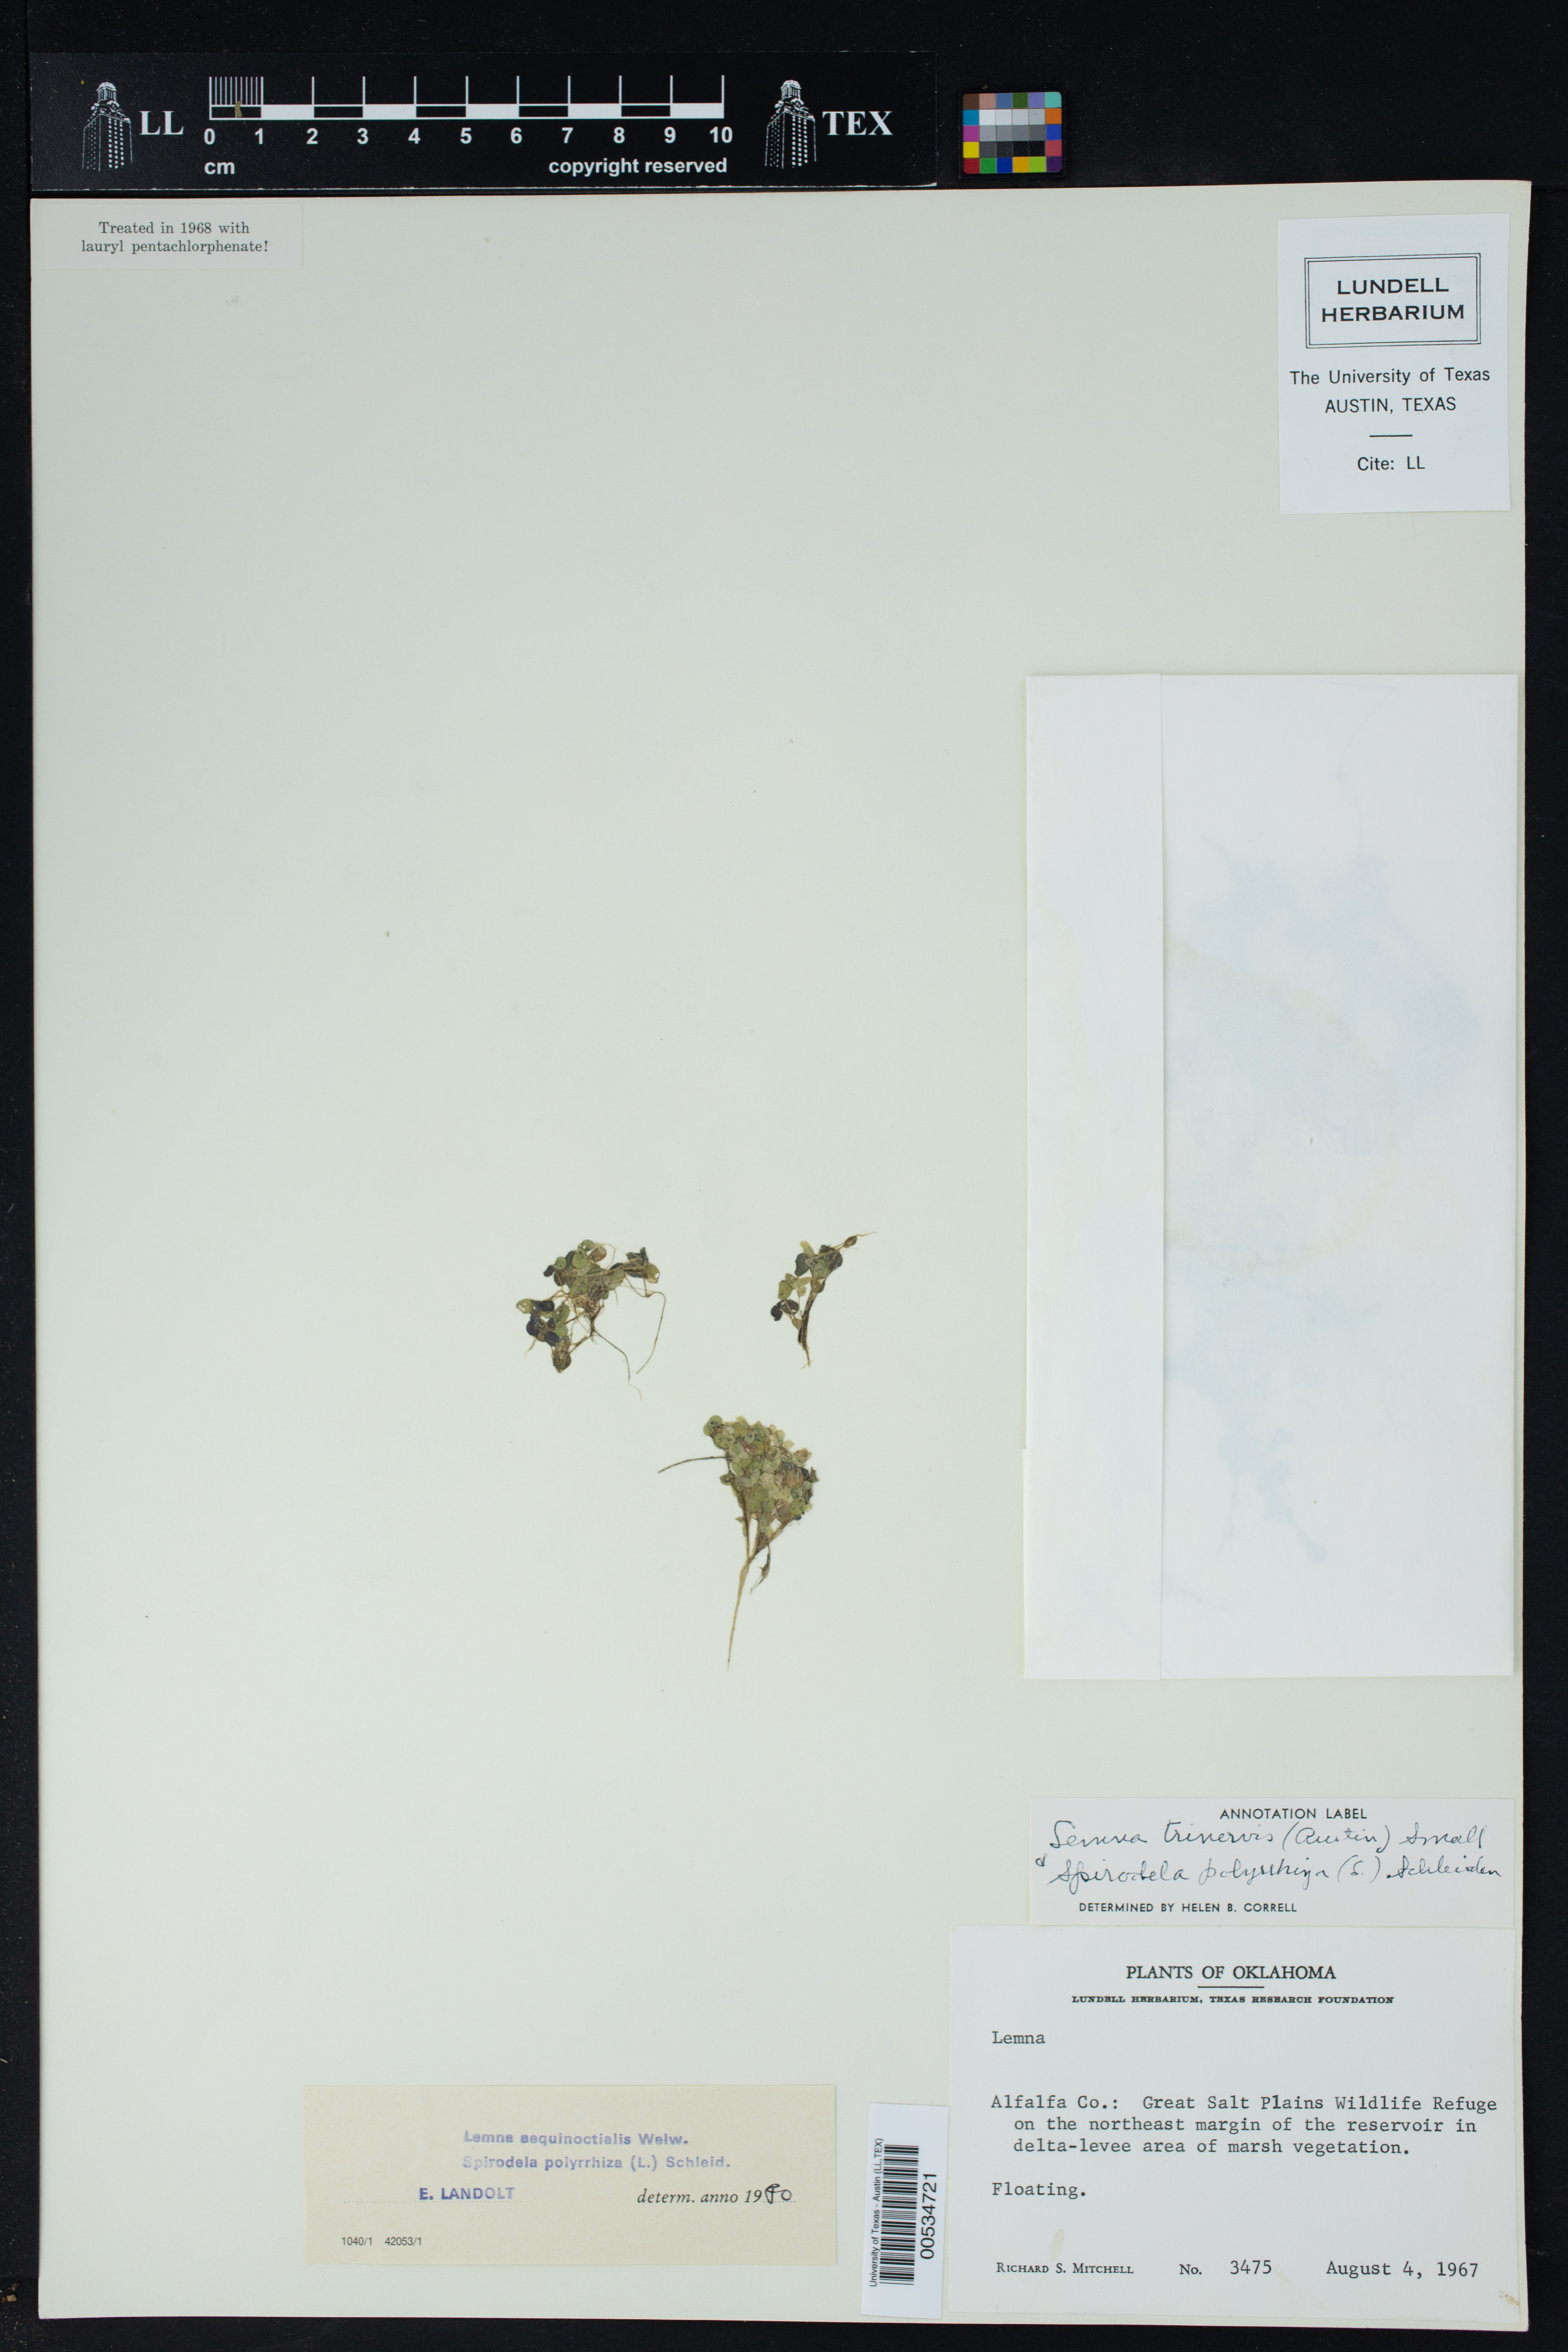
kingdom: Plantae
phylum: Tracheophyta
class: Liliopsida
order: Alismatales
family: Araceae
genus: Lemna
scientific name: Lemna aequinoctialis
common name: Duckweed
